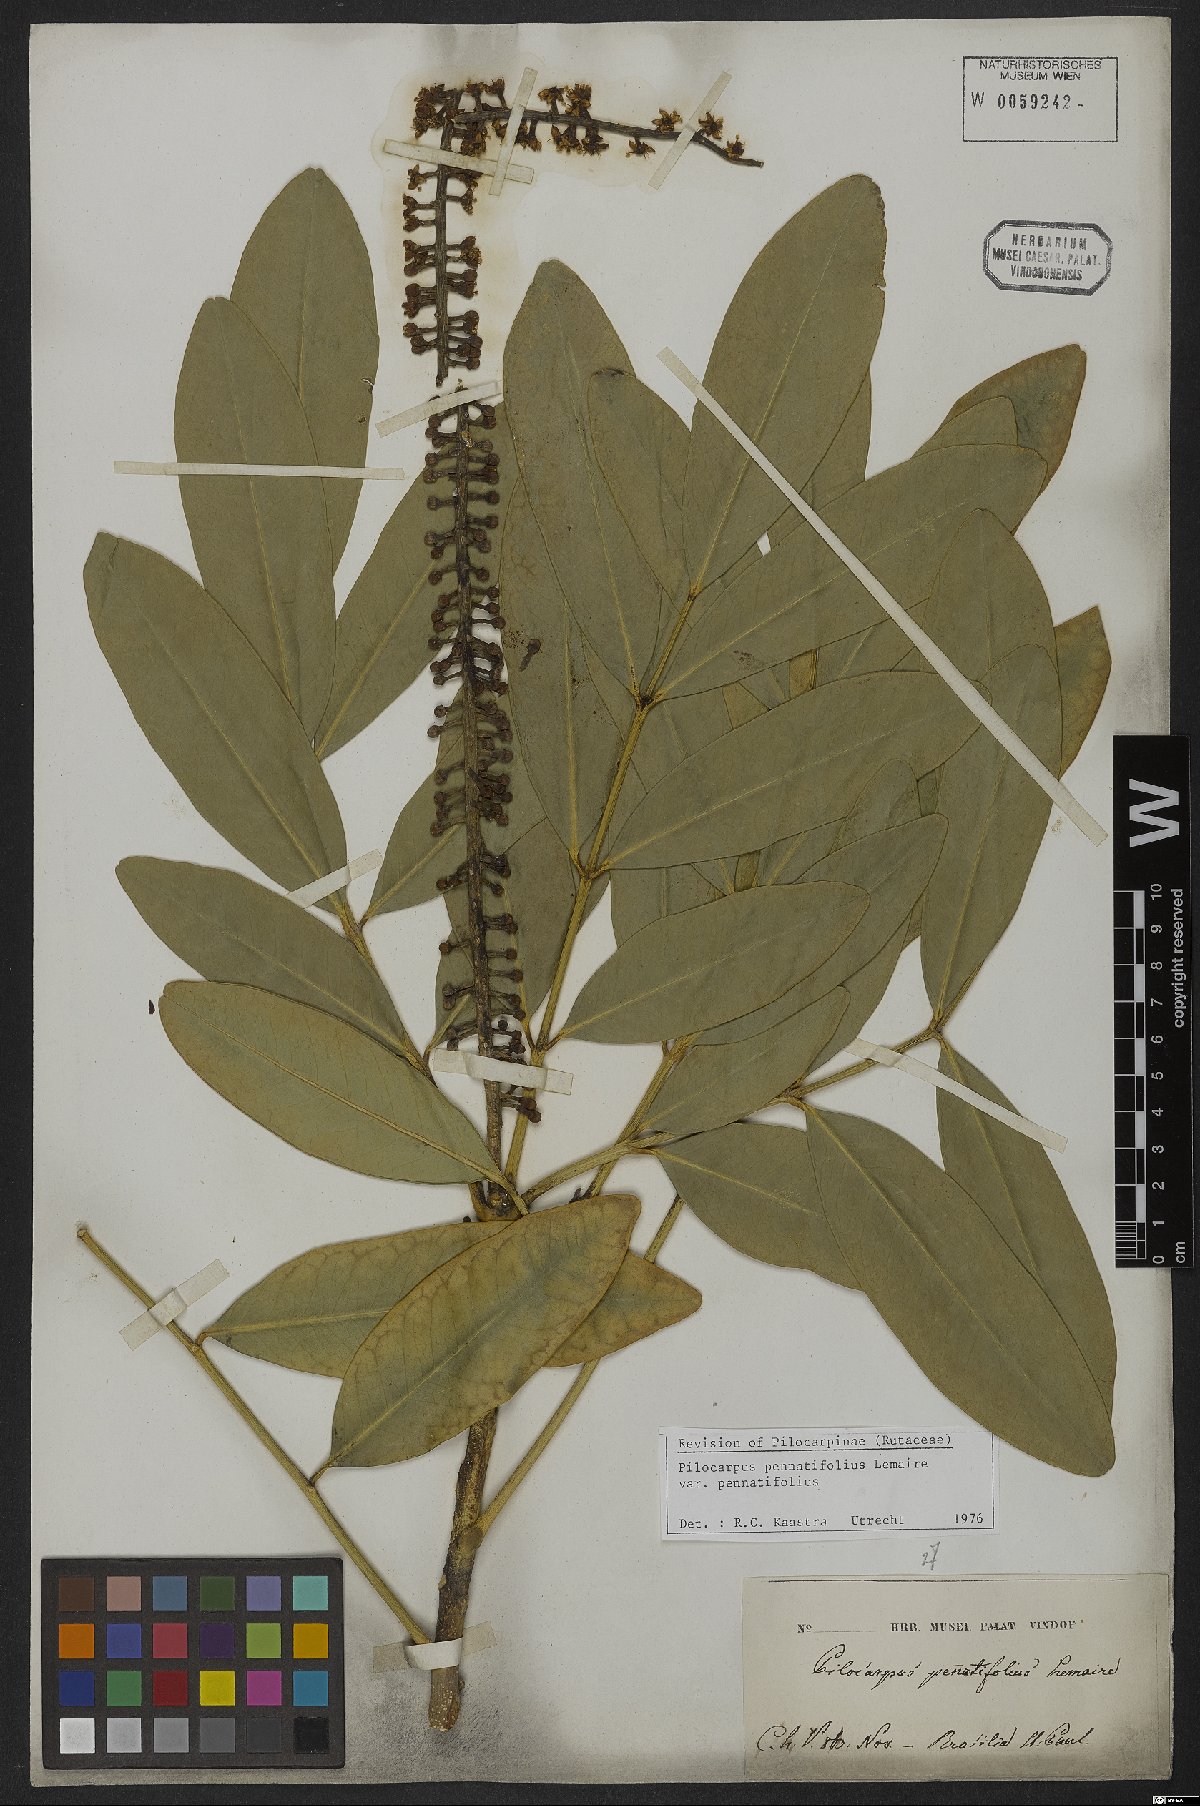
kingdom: Plantae
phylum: Tracheophyta
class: Magnoliopsida
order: Sapindales
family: Rutaceae
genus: Pilocarpus
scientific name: Pilocarpus pennatifolius
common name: Paraguay jaborandi
